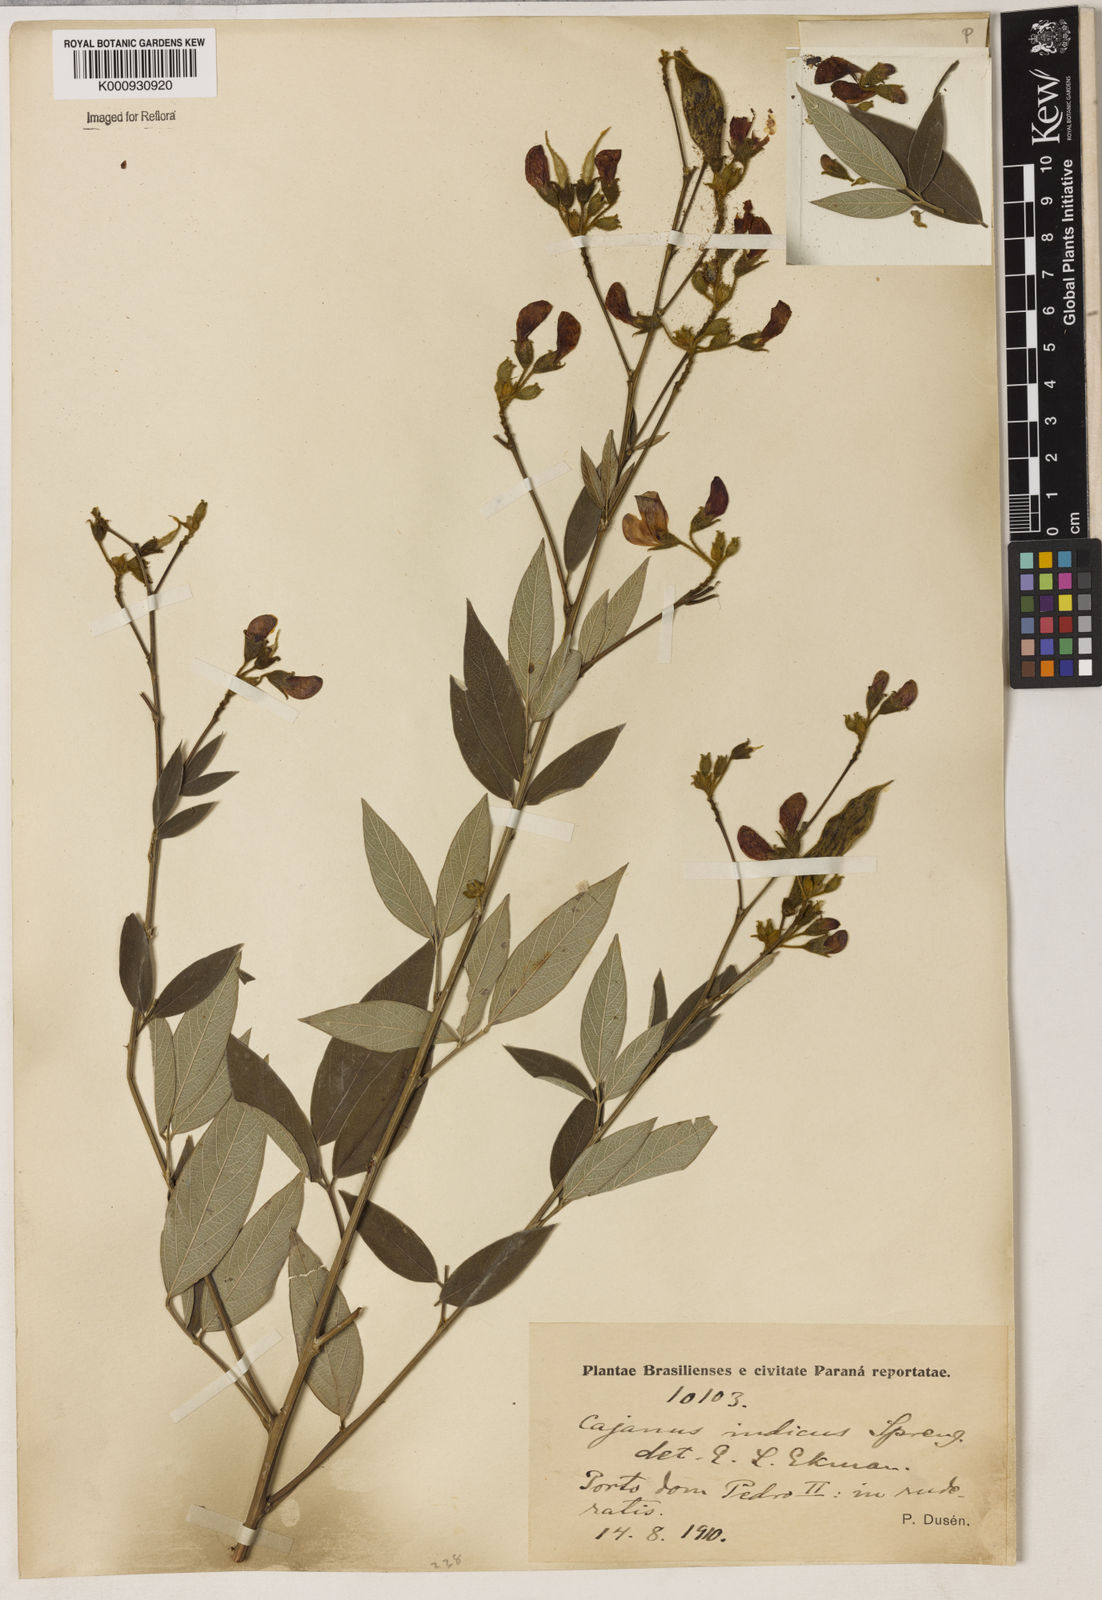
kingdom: Plantae
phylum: Tracheophyta
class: Magnoliopsida
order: Fabales
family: Fabaceae
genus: Cajanus
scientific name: Cajanus
